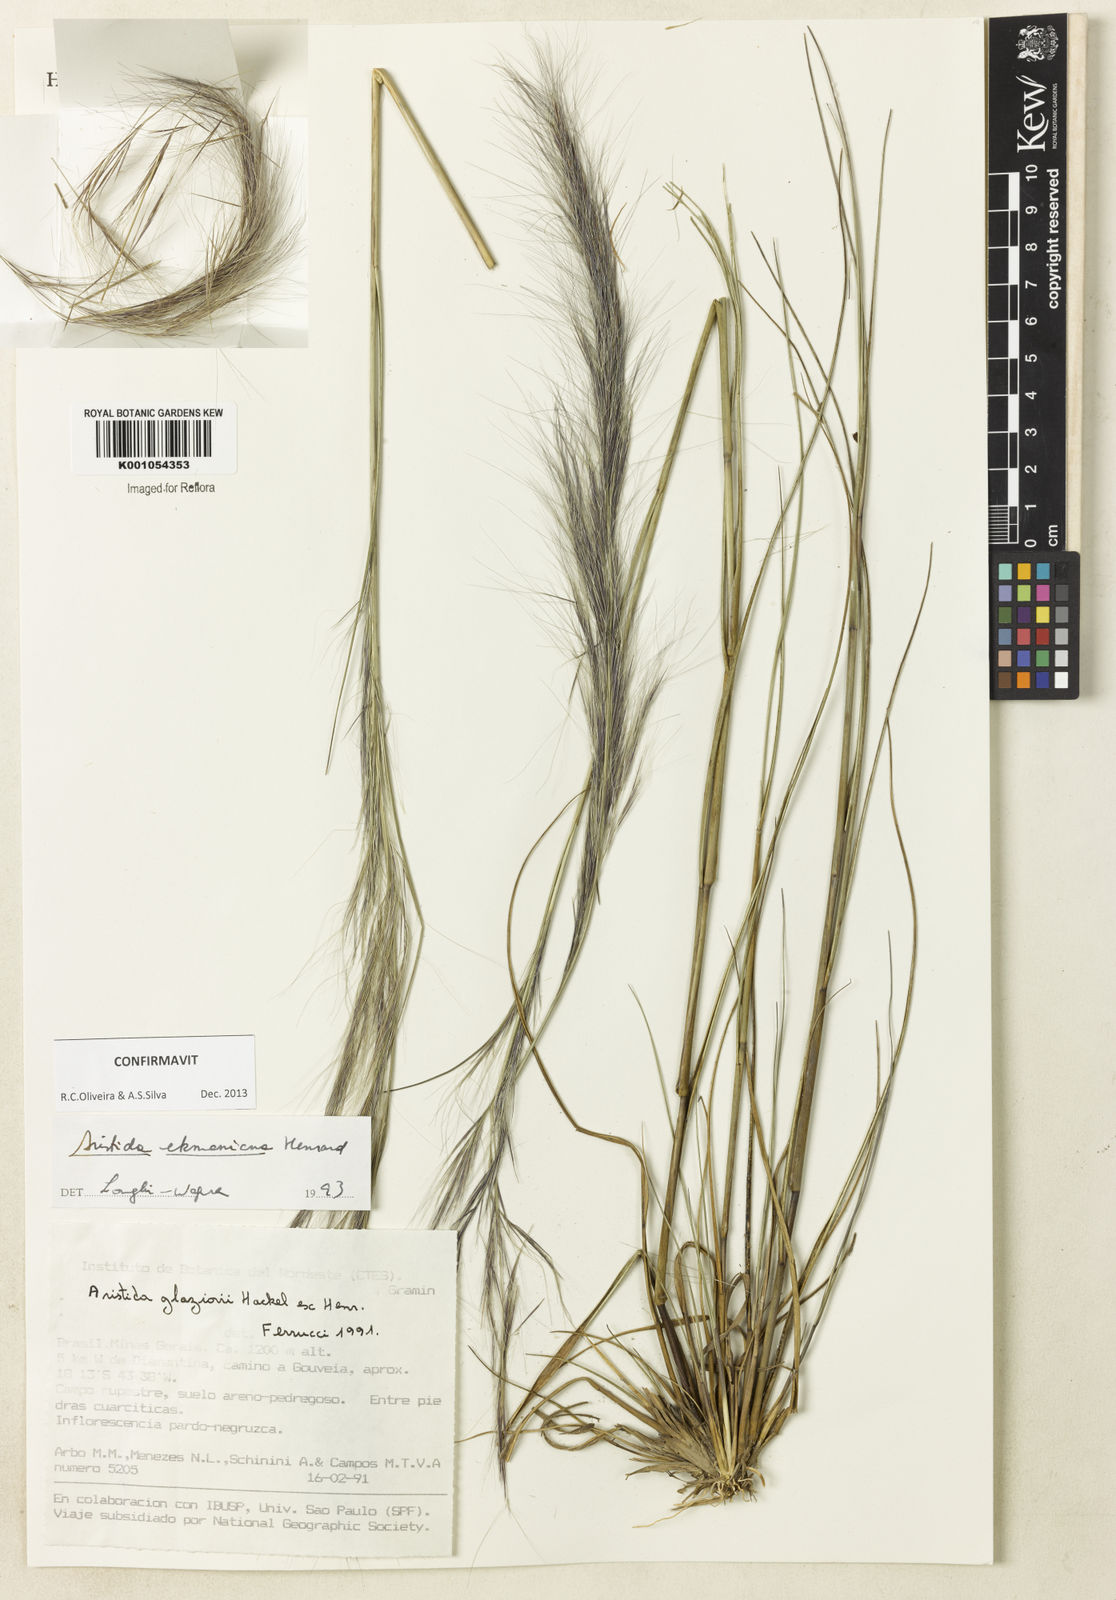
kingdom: Plantae
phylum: Tracheophyta
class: Liliopsida
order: Poales
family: Poaceae
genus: Aristida
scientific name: Aristida ekmaniana
